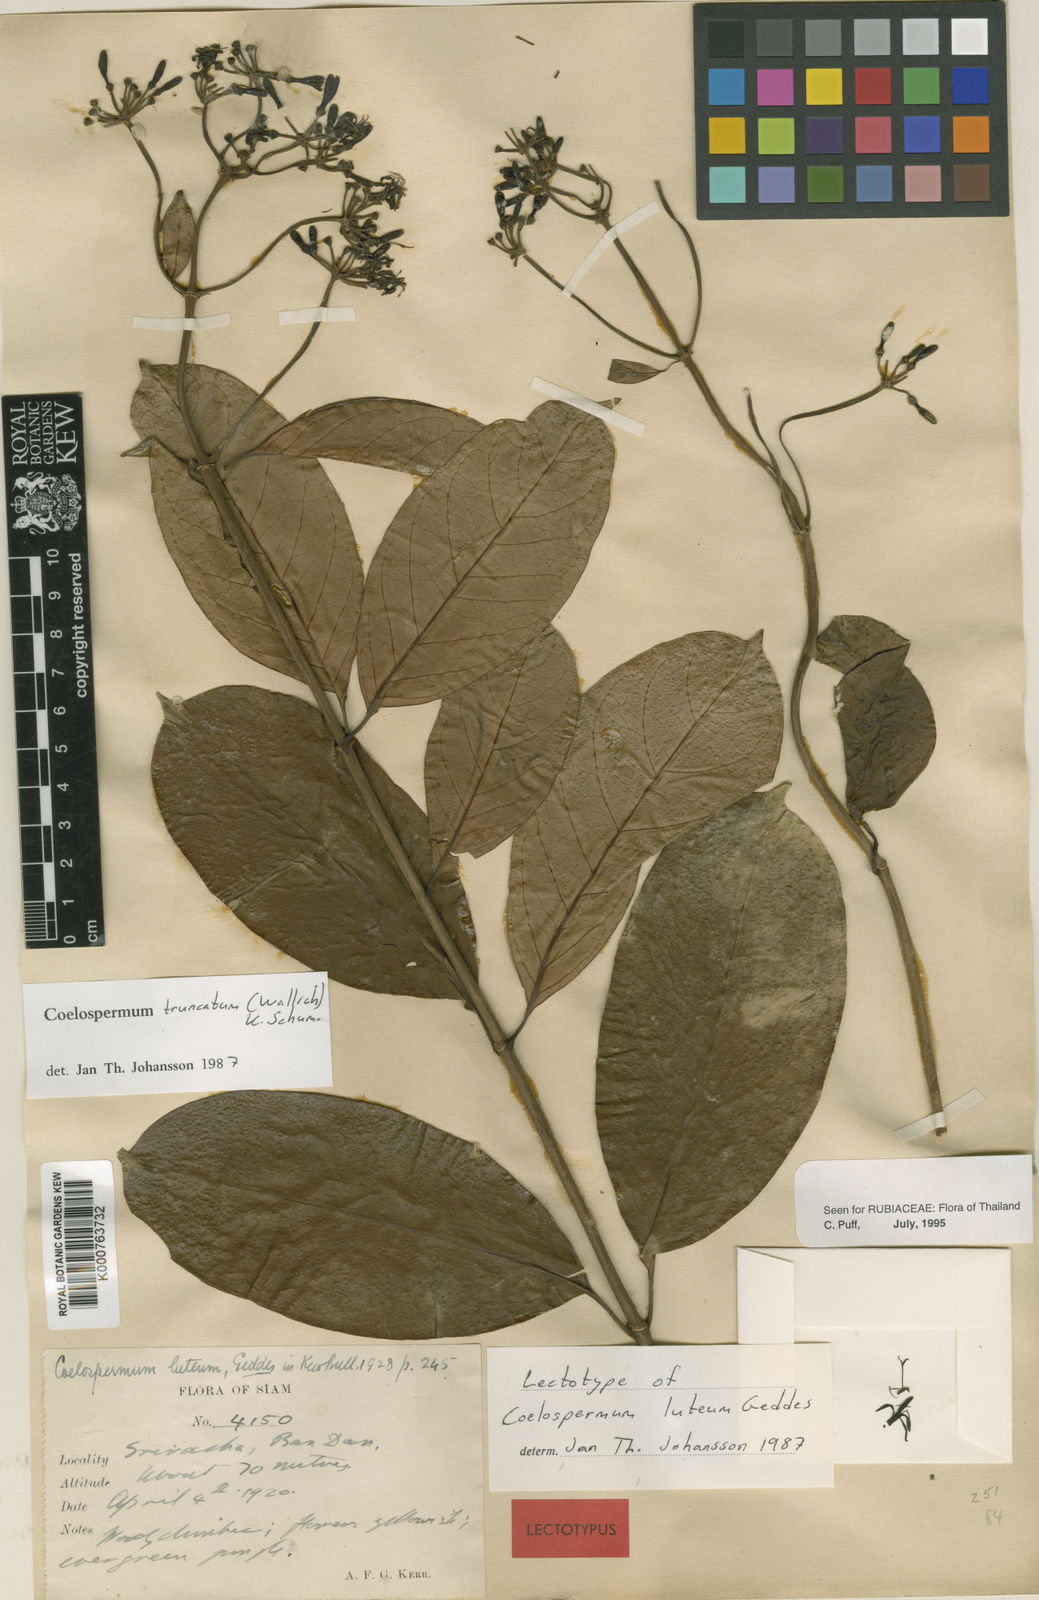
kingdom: Plantae
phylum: Tracheophyta
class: Magnoliopsida
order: Gentianales
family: Rubiaceae
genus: Coelospermum
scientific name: Coelospermum truncatum
